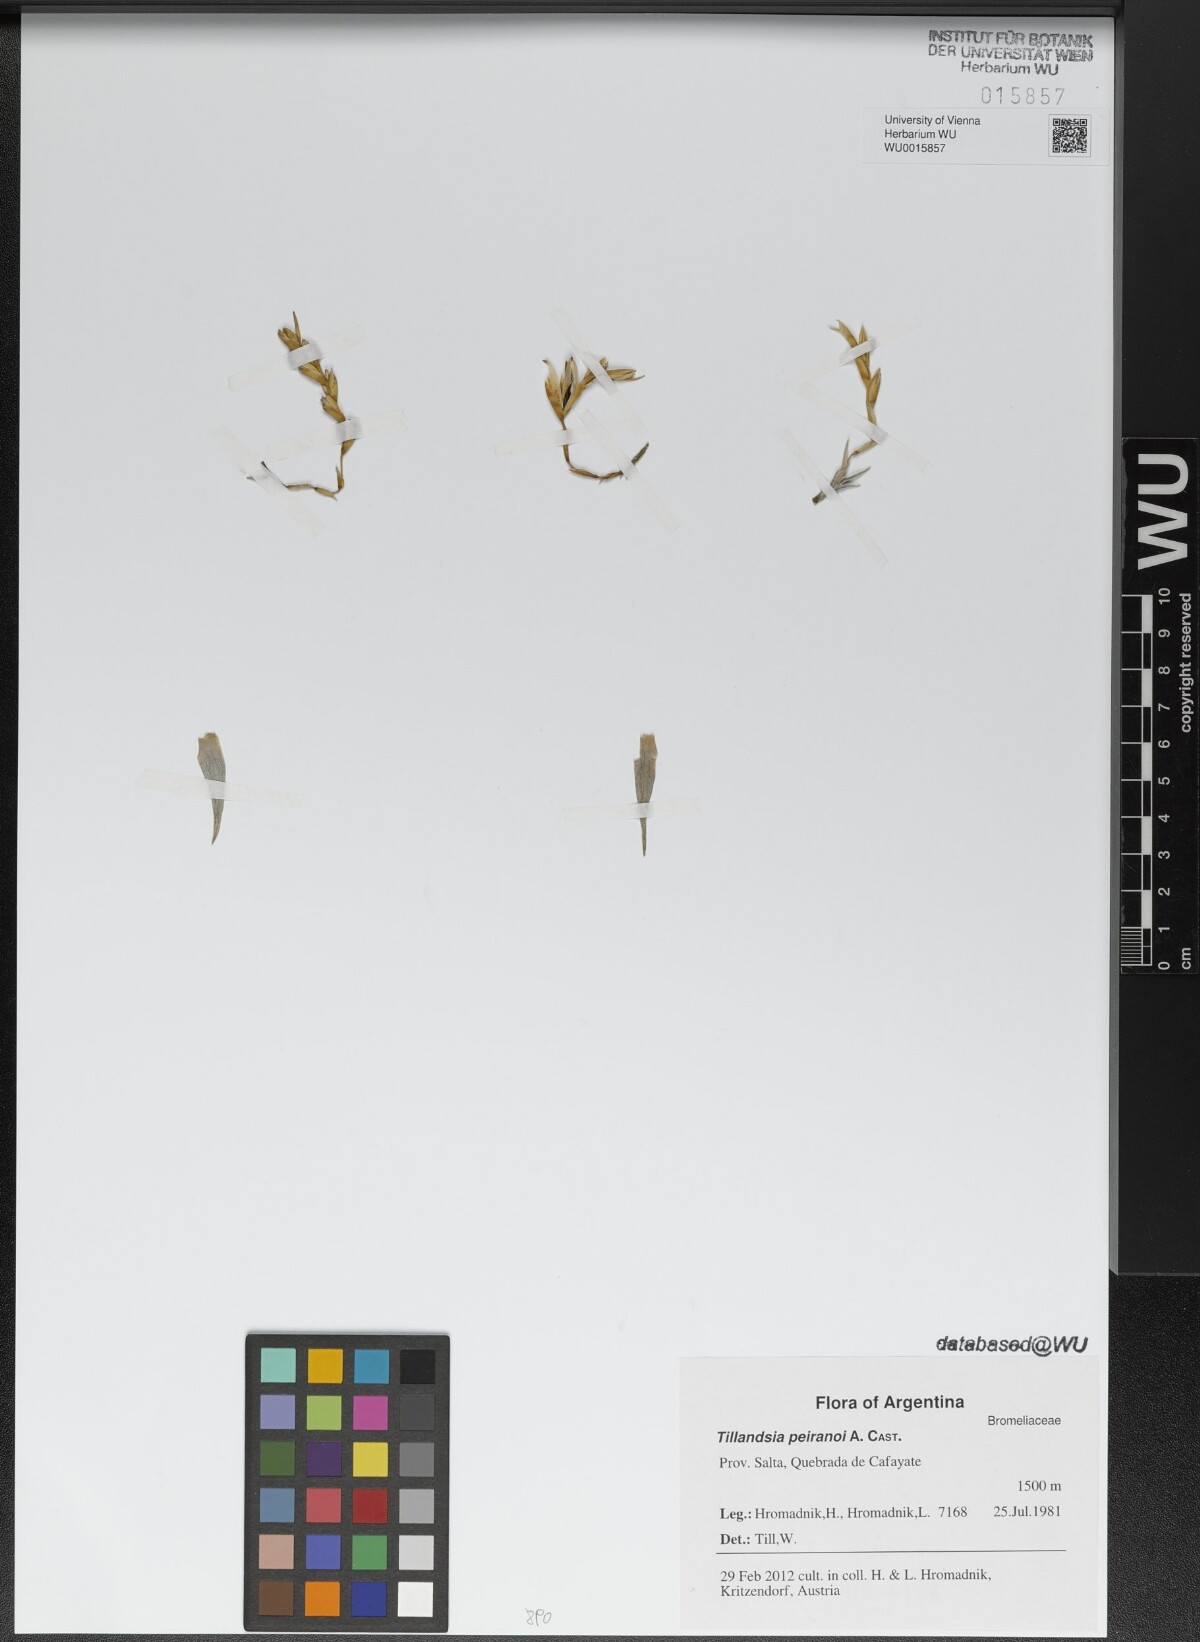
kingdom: Plantae
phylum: Tracheophyta
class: Liliopsida
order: Poales
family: Bromeliaceae
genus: Tillandsia
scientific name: Tillandsia peiranoi
